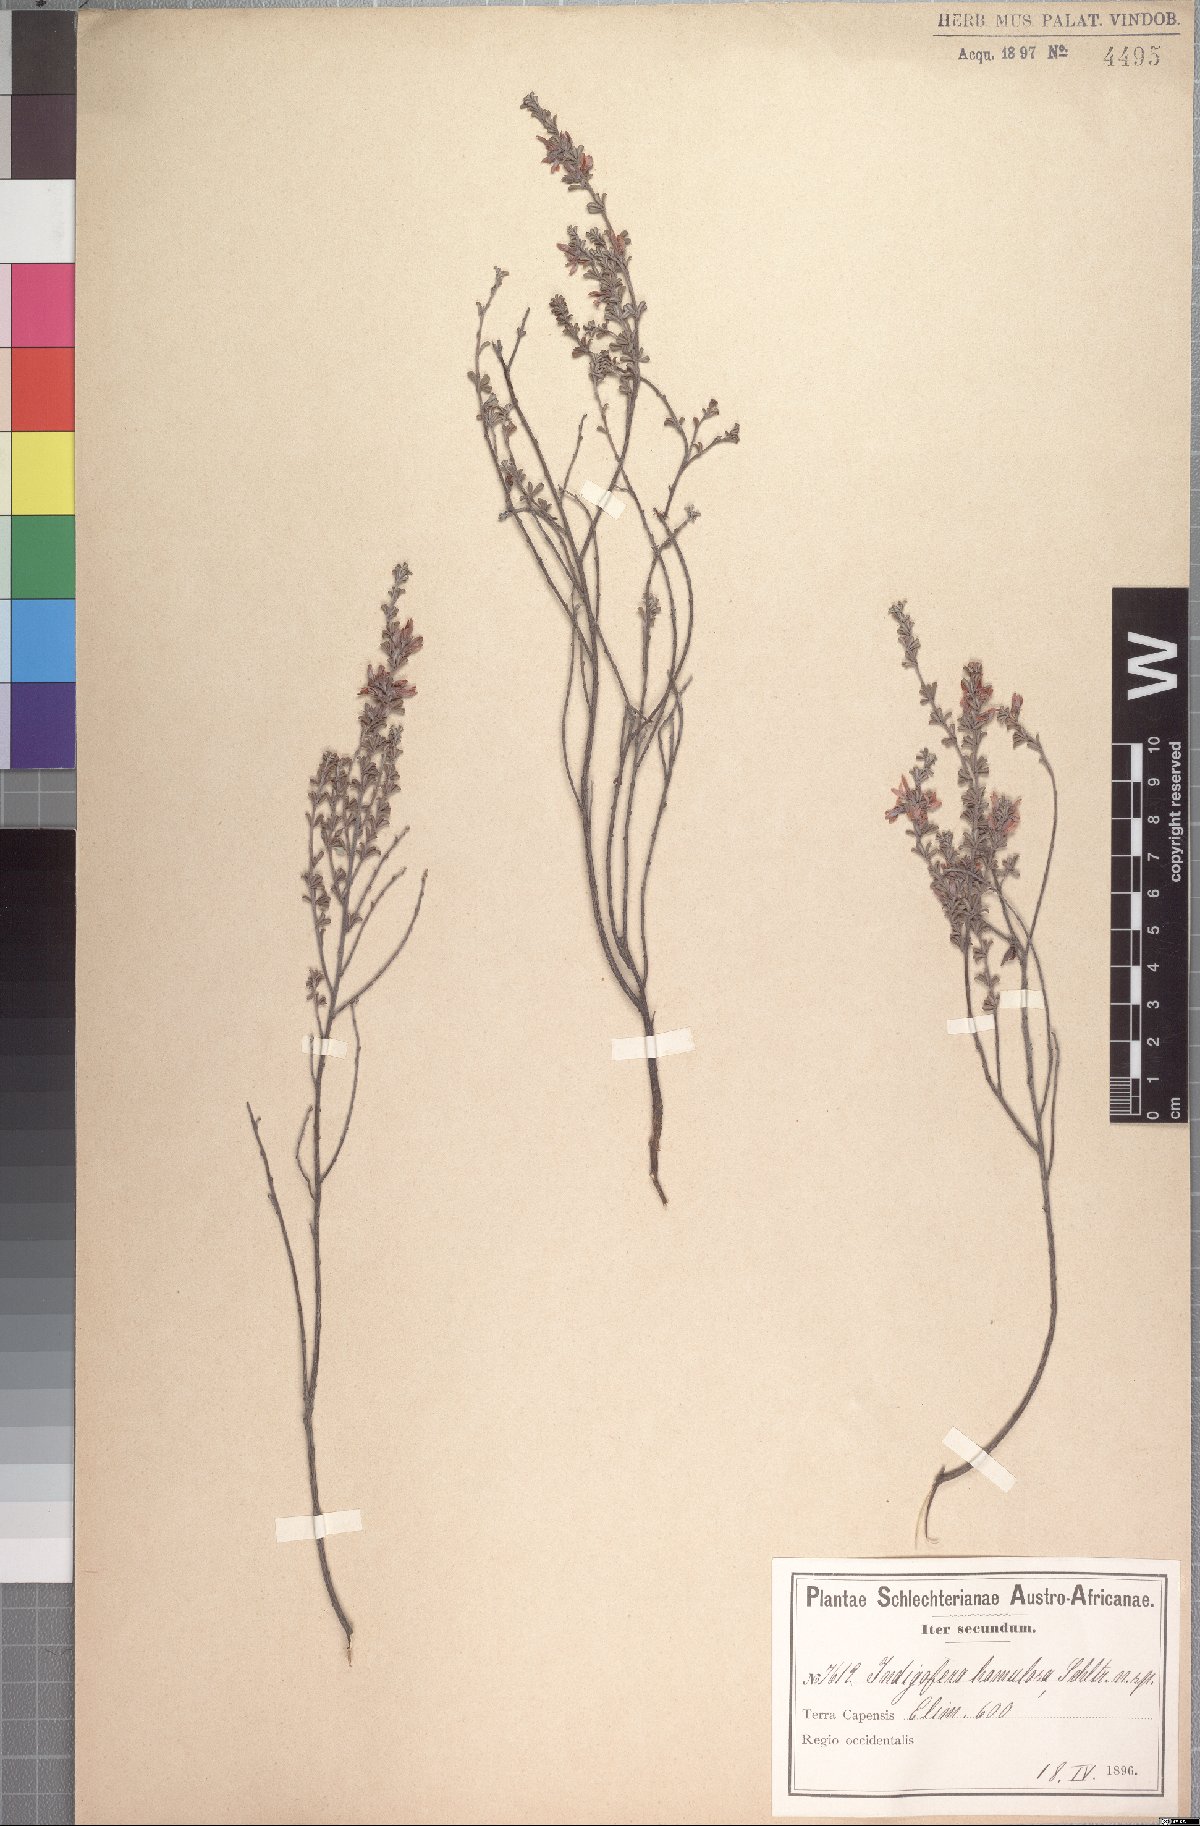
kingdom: Plantae
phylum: Tracheophyta
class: Magnoliopsida
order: Fabales
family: Fabaceae
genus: Indigofera
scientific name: Indigofera hamulosa
